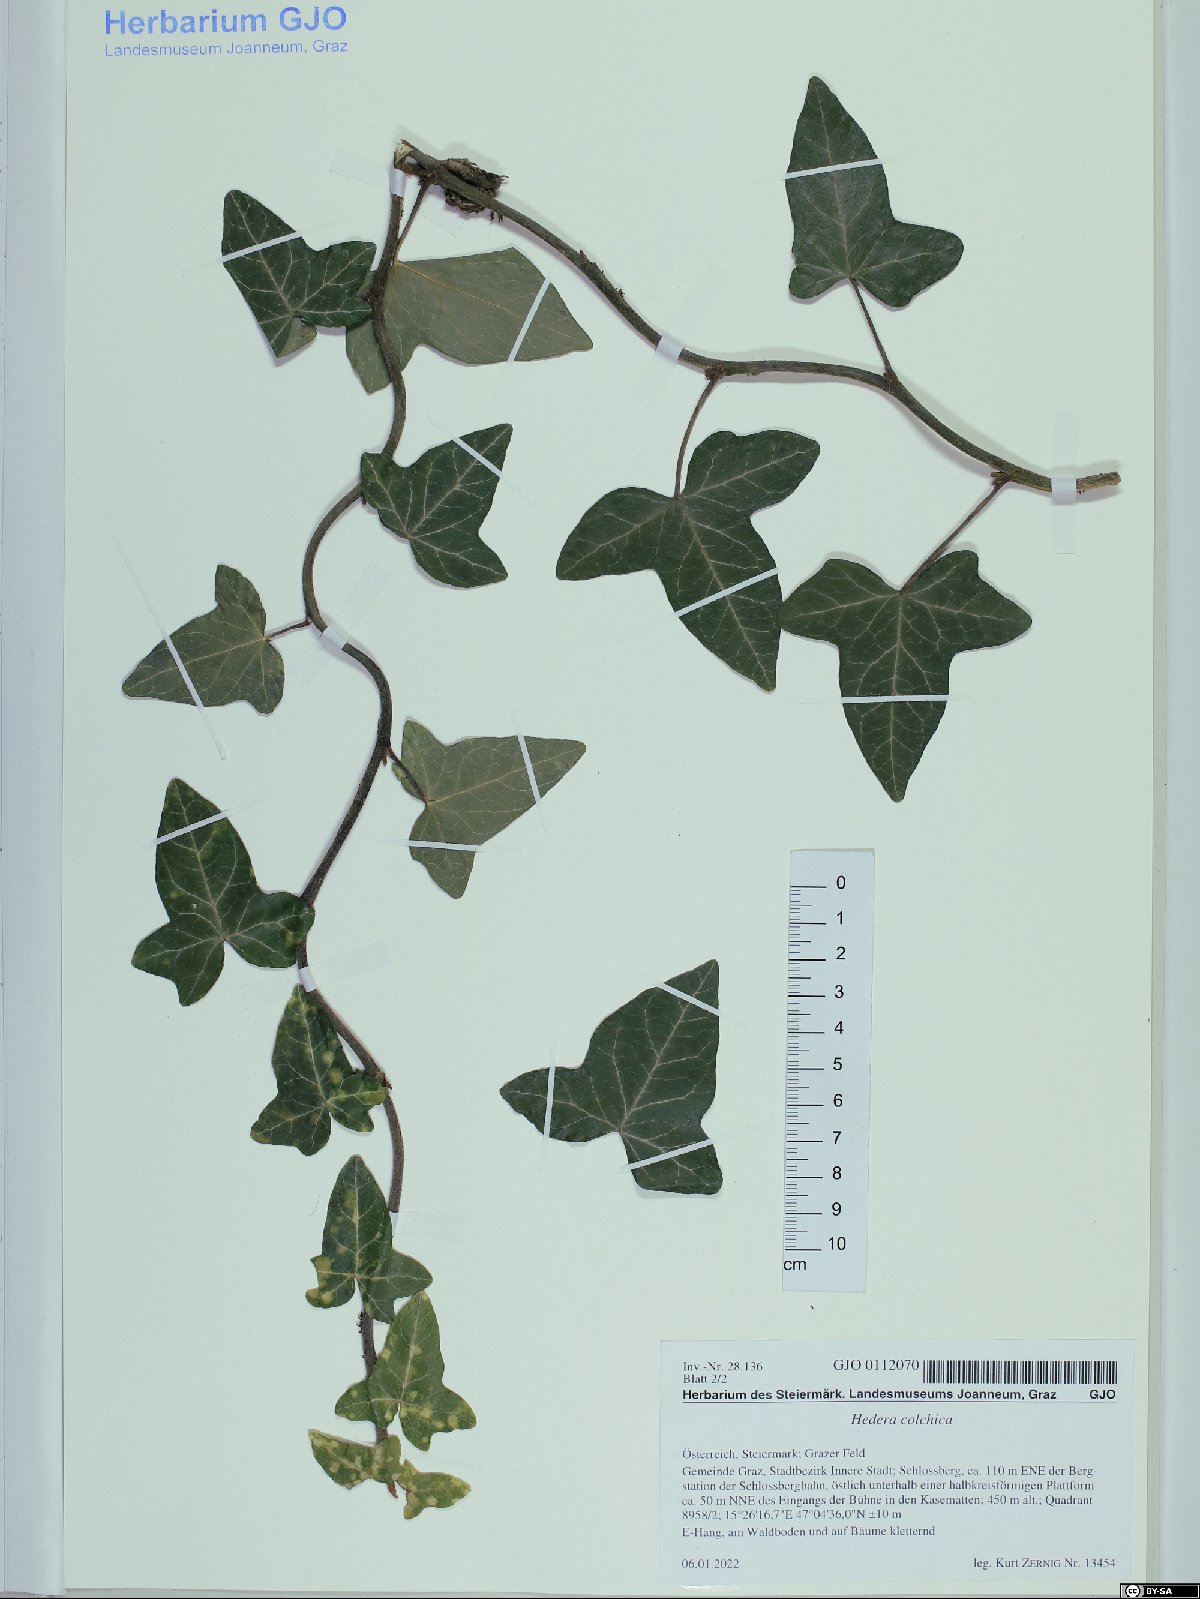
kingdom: Plantae
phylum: Tracheophyta
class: Magnoliopsida
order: Apiales
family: Araliaceae
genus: Hedera
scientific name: Hedera colchica
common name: Persian ivy
